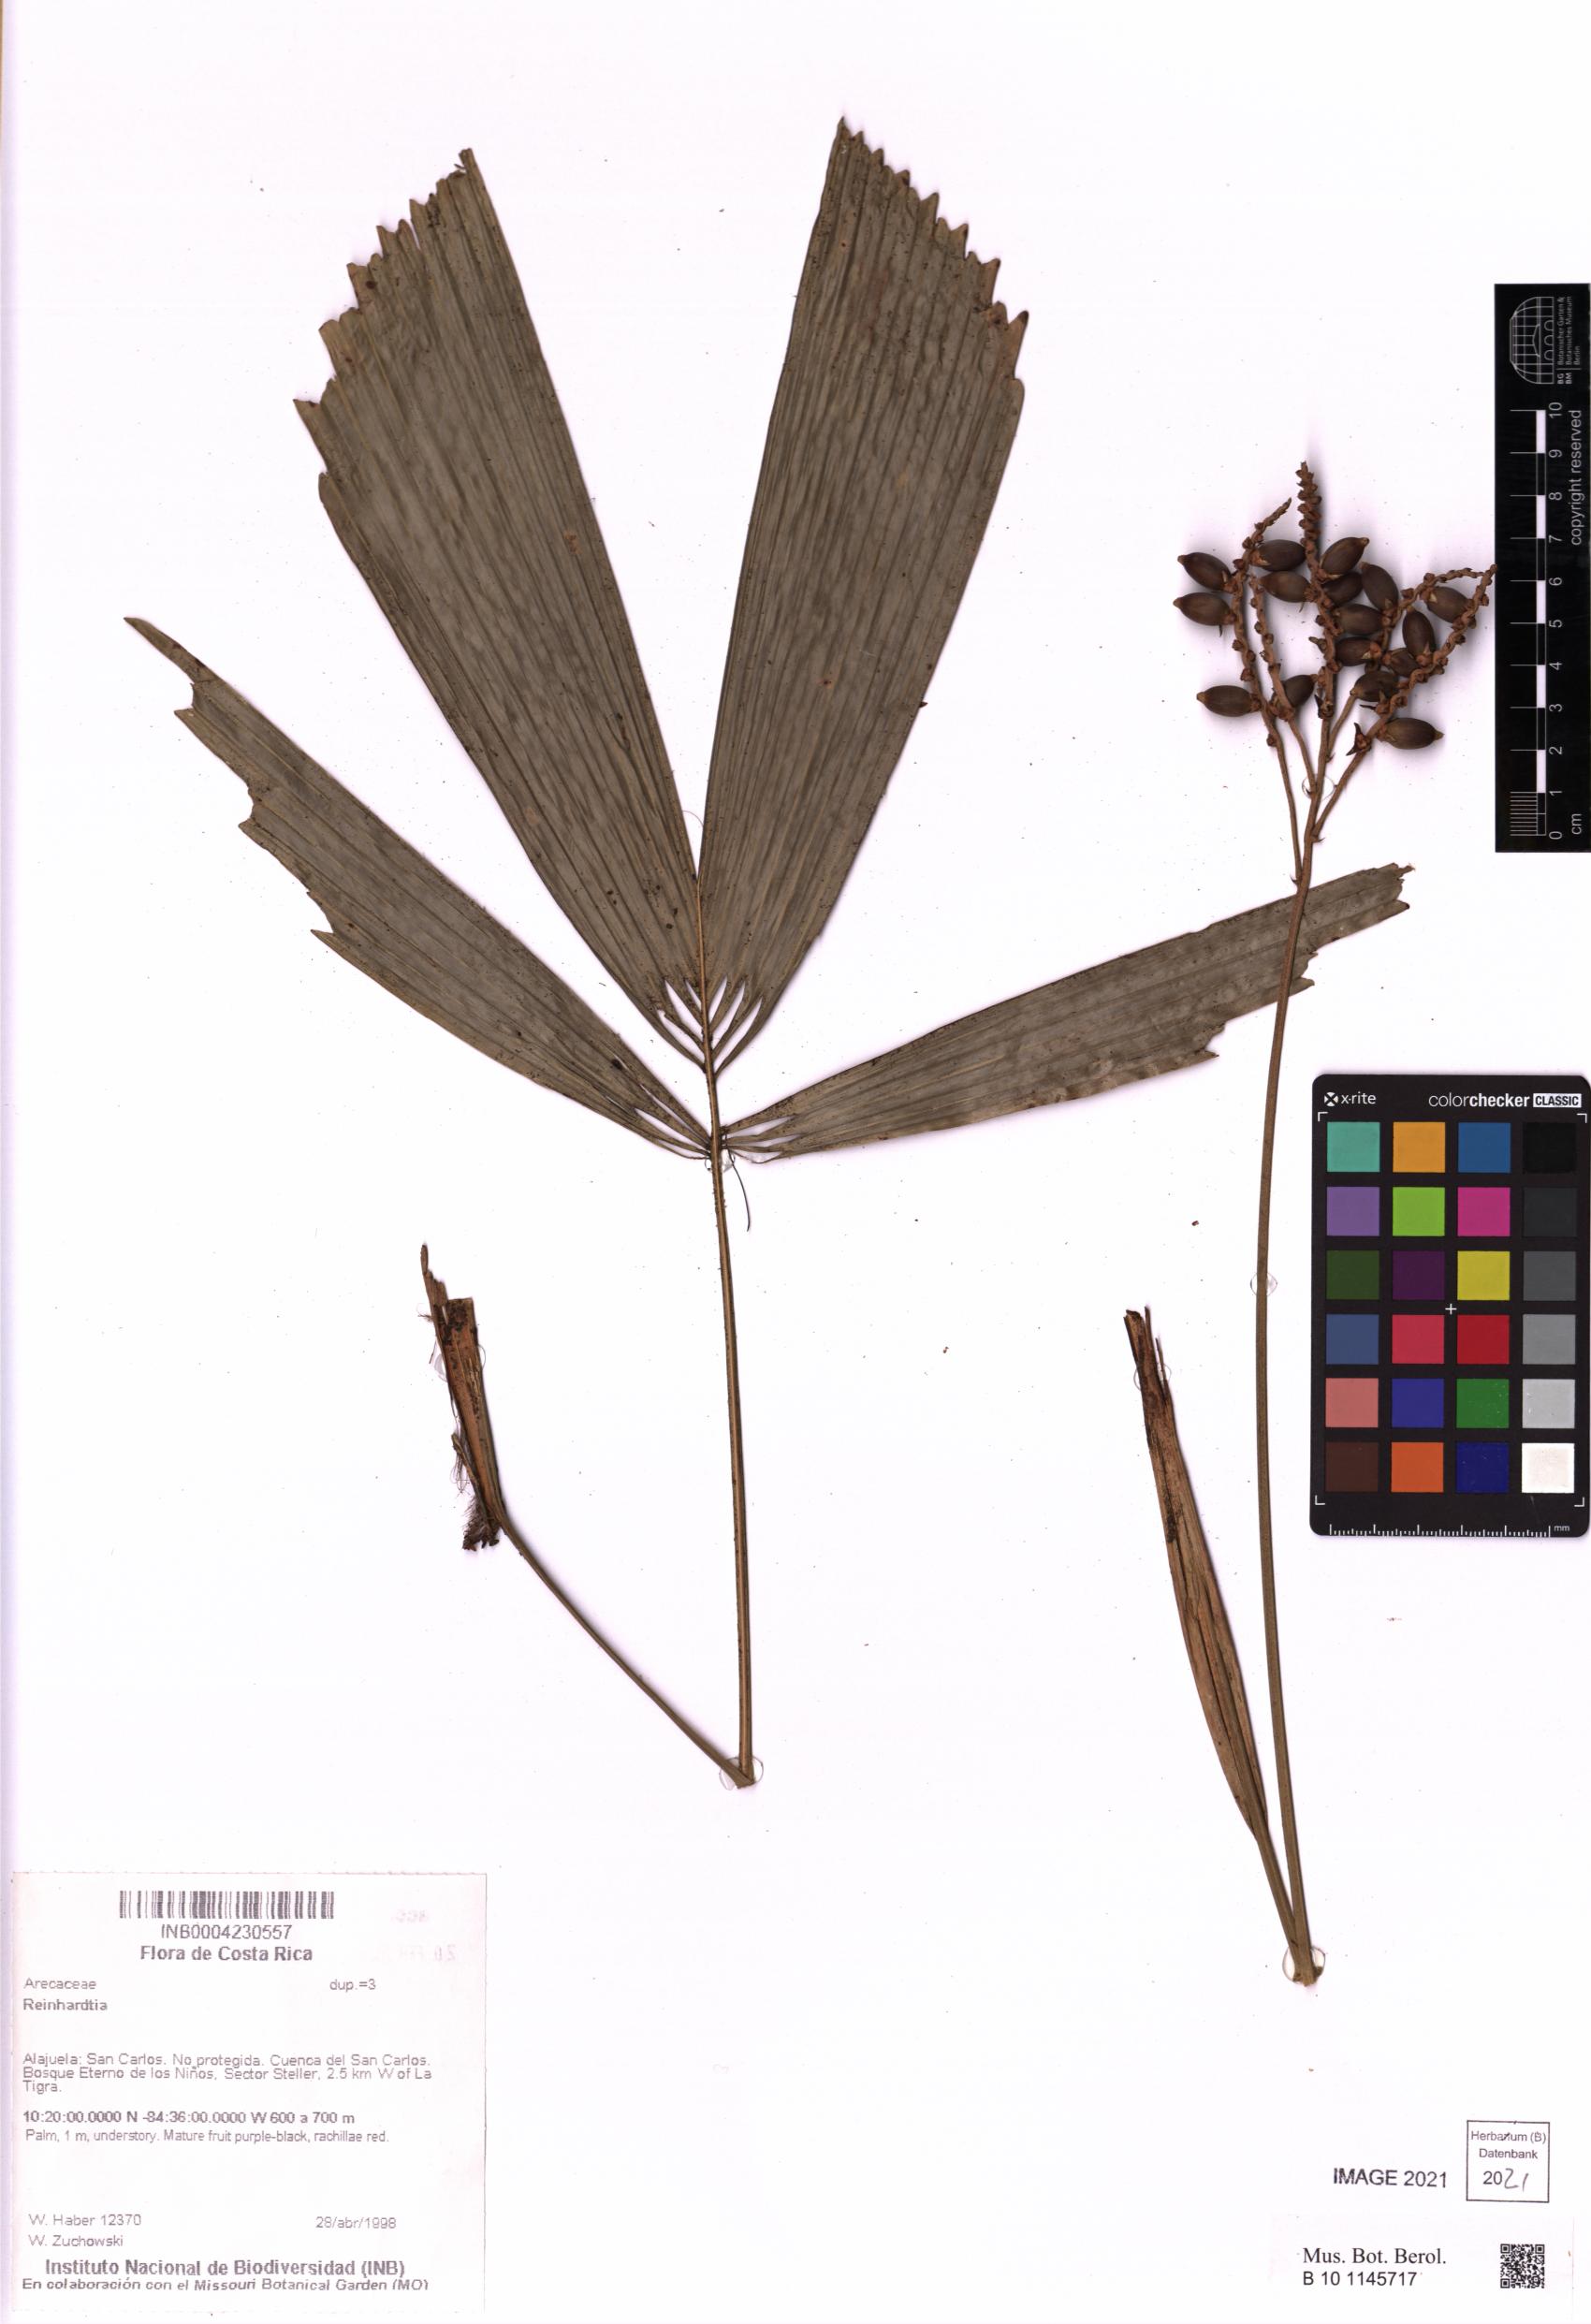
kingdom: Plantae
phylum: Tracheophyta
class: Liliopsida
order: Arecales
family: Arecaceae
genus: Reinhardtia
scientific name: Reinhardtia
